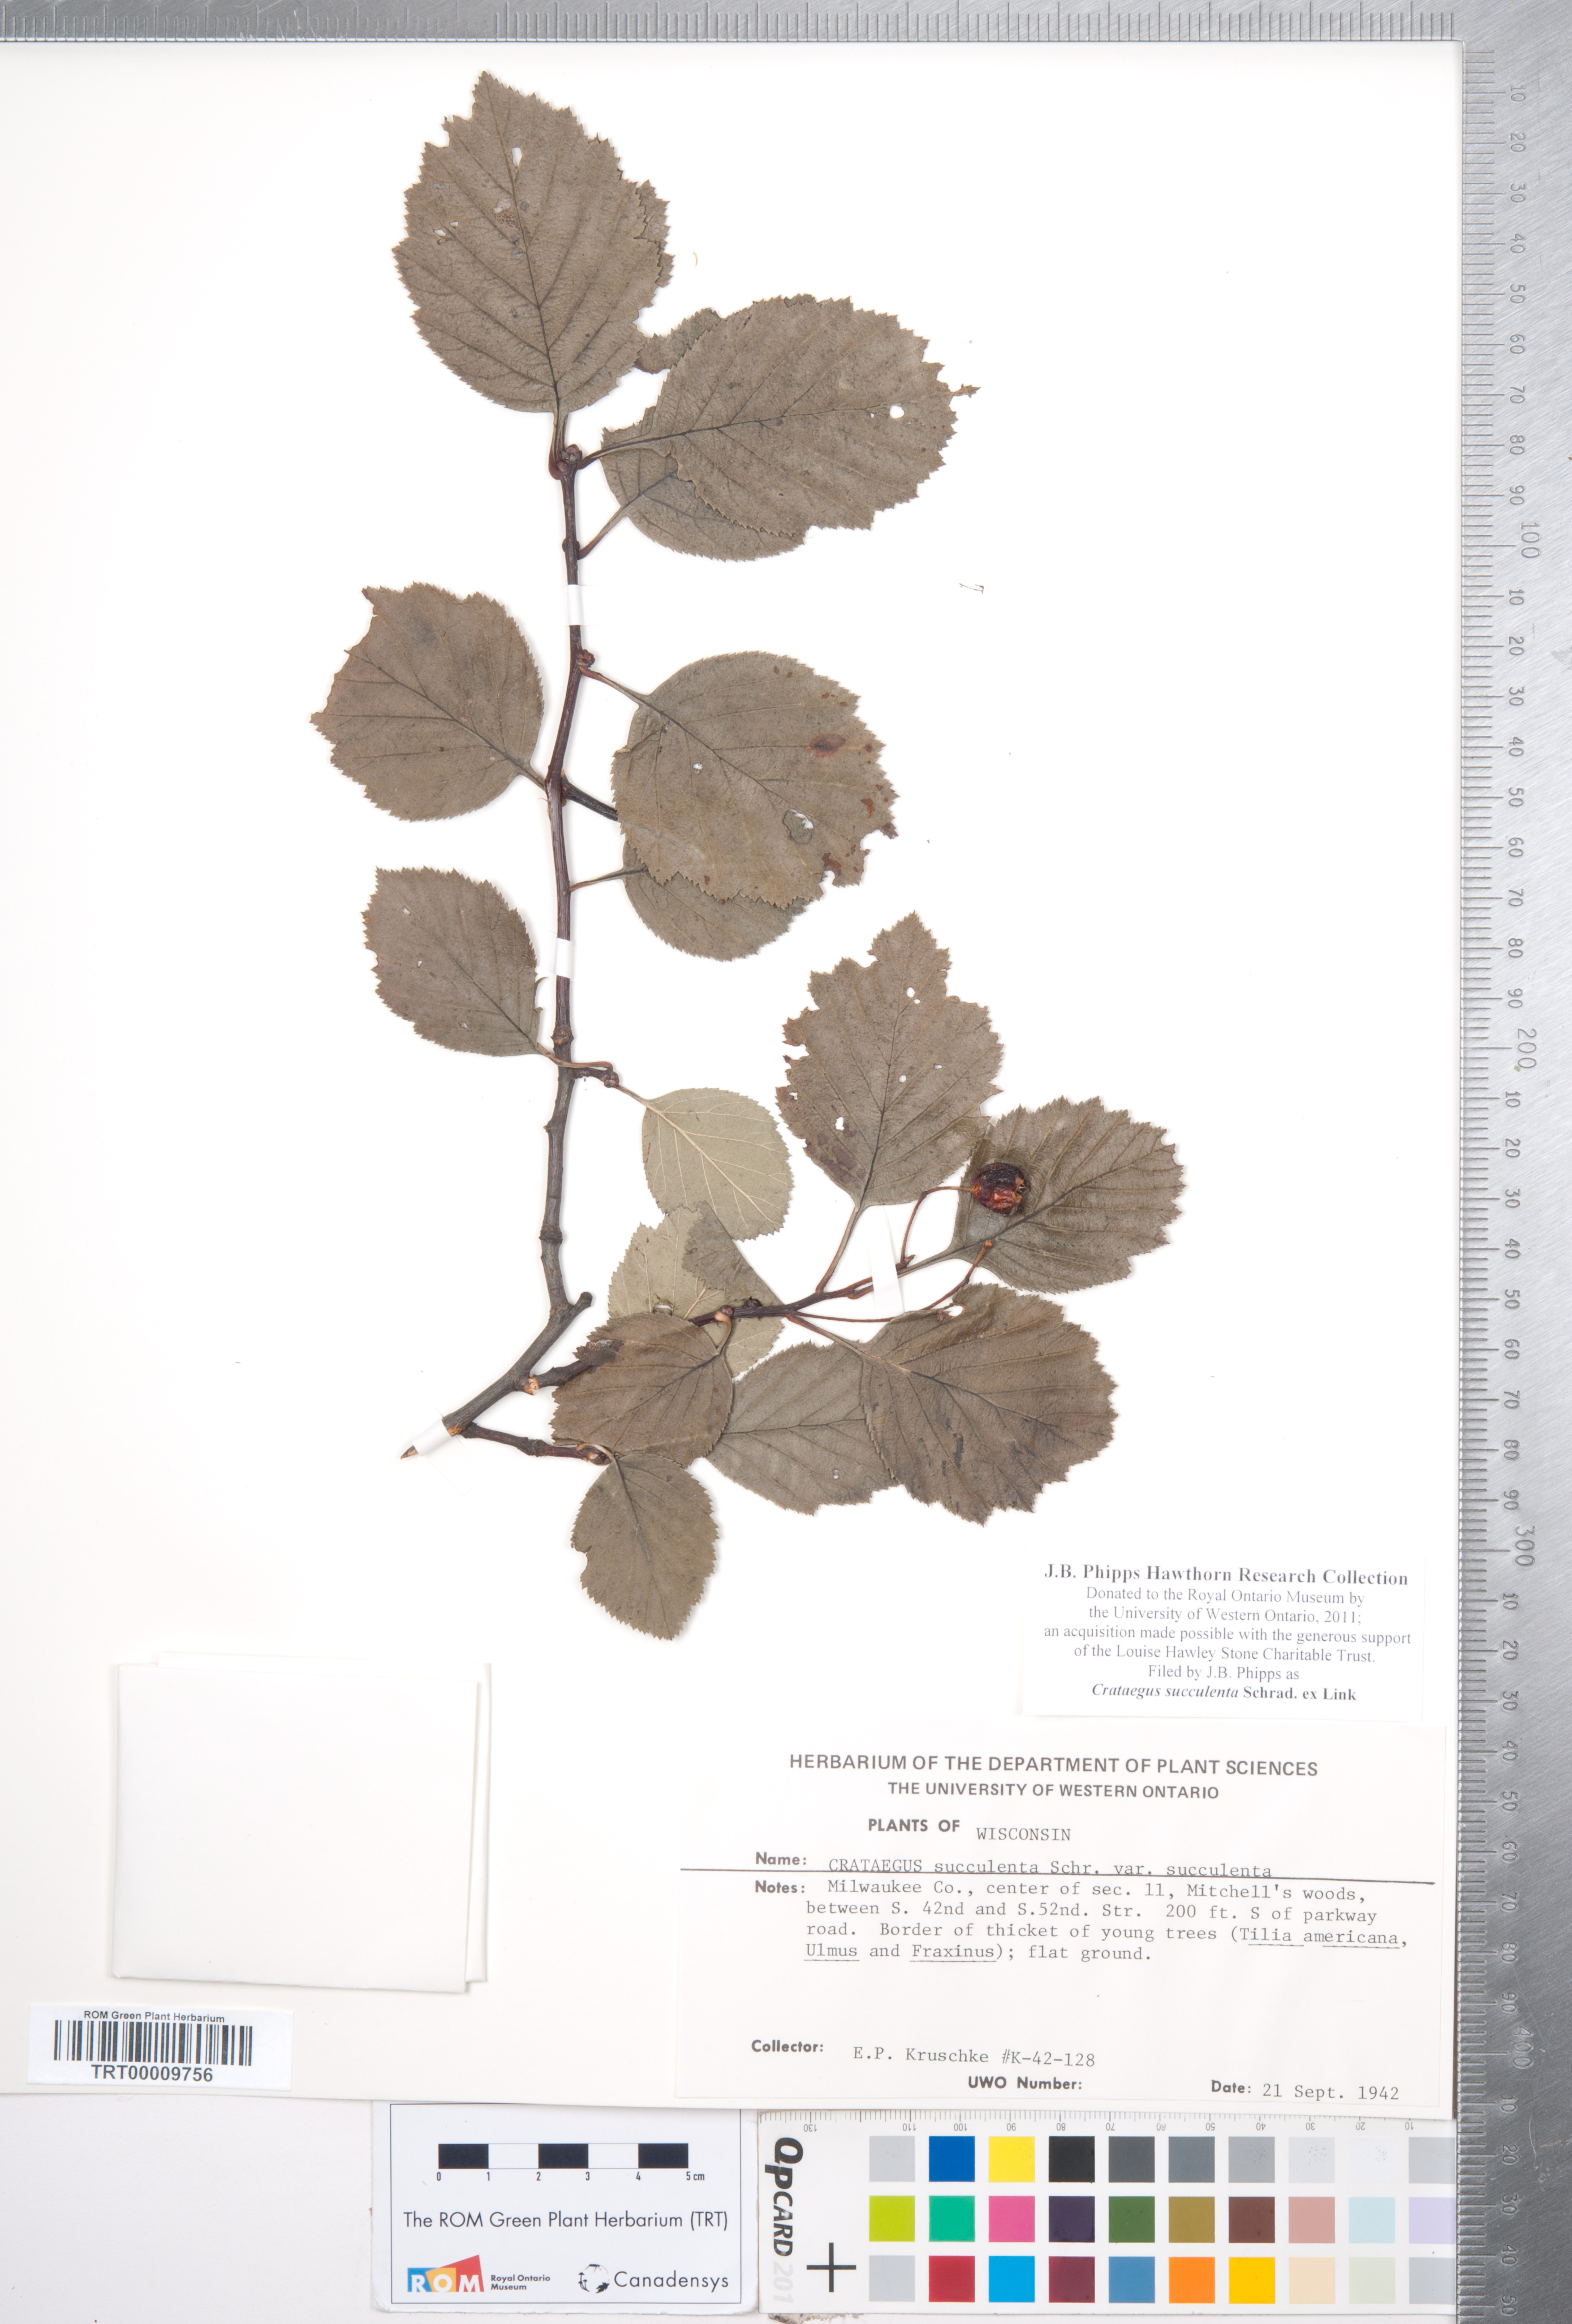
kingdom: Plantae
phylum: Tracheophyta
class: Magnoliopsida
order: Rosales
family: Rosaceae
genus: Crataegus
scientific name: Crataegus succulenta
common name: Fleshy hawthorn
